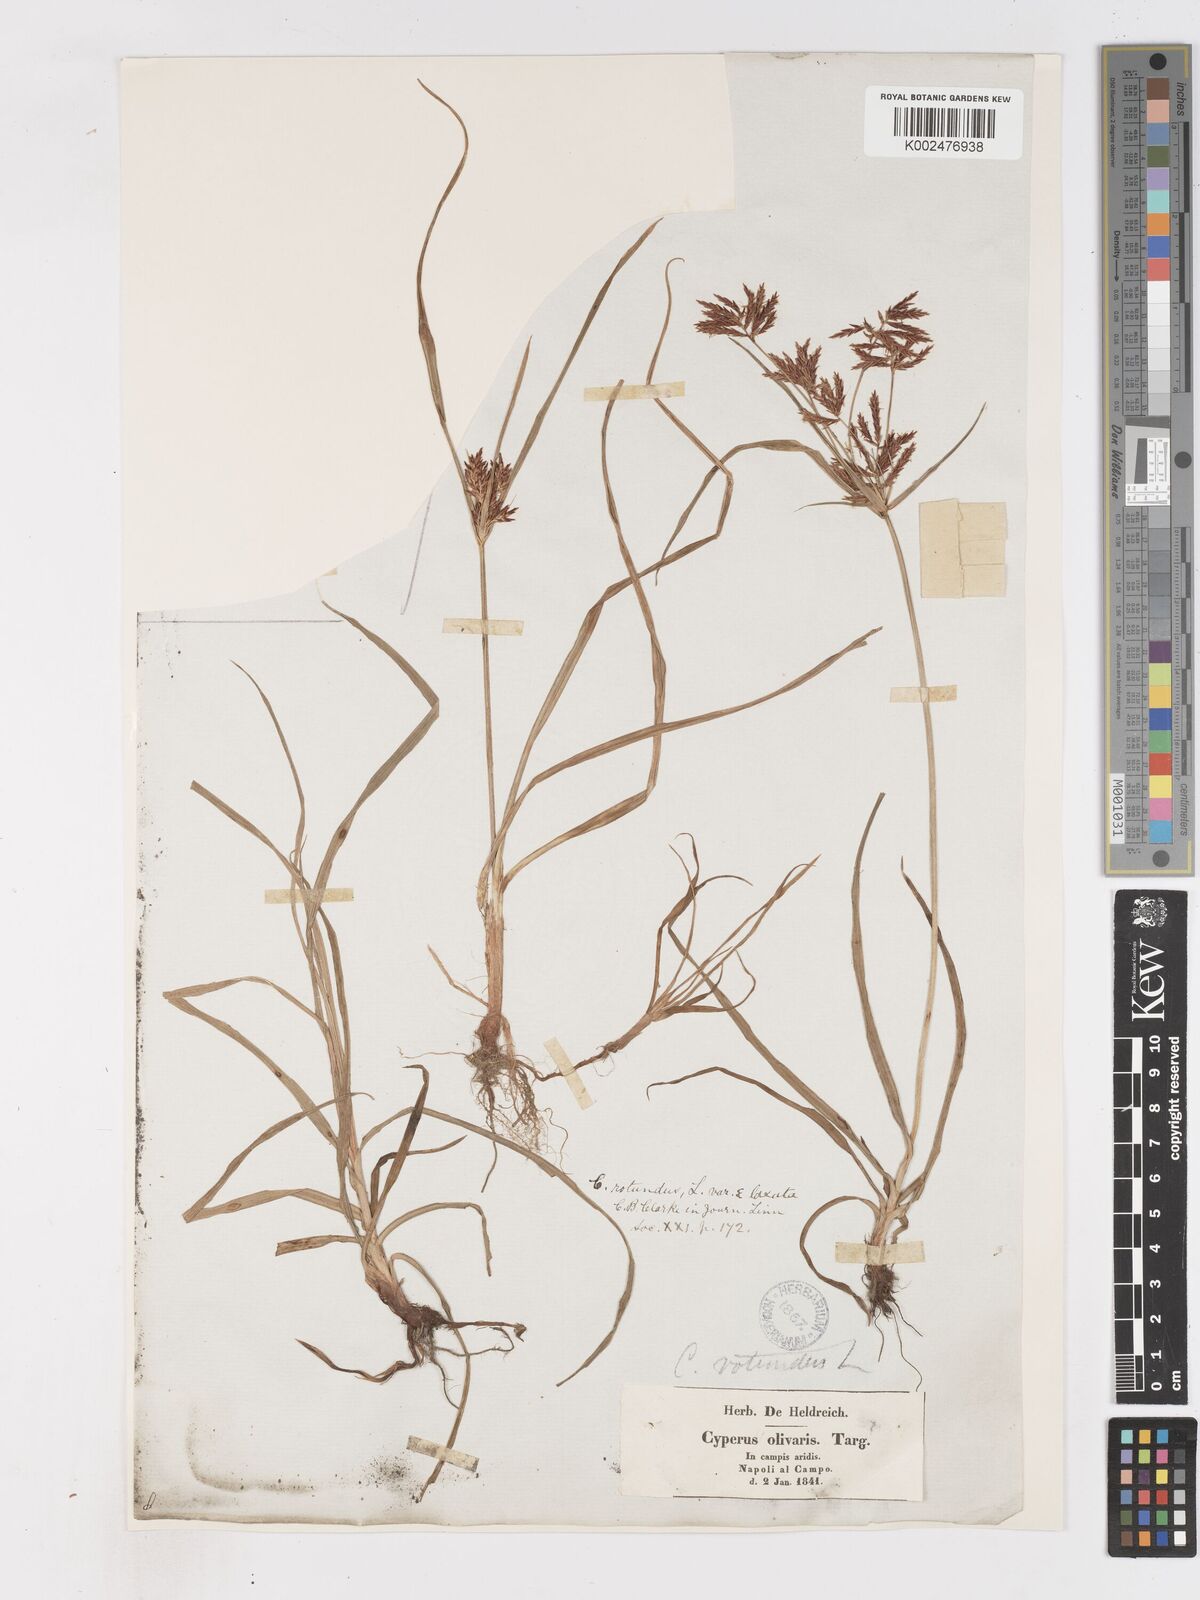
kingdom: Plantae
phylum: Tracheophyta
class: Liliopsida
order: Poales
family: Cyperaceae
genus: Cyperus
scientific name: Cyperus rotundus
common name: Nutgrass
